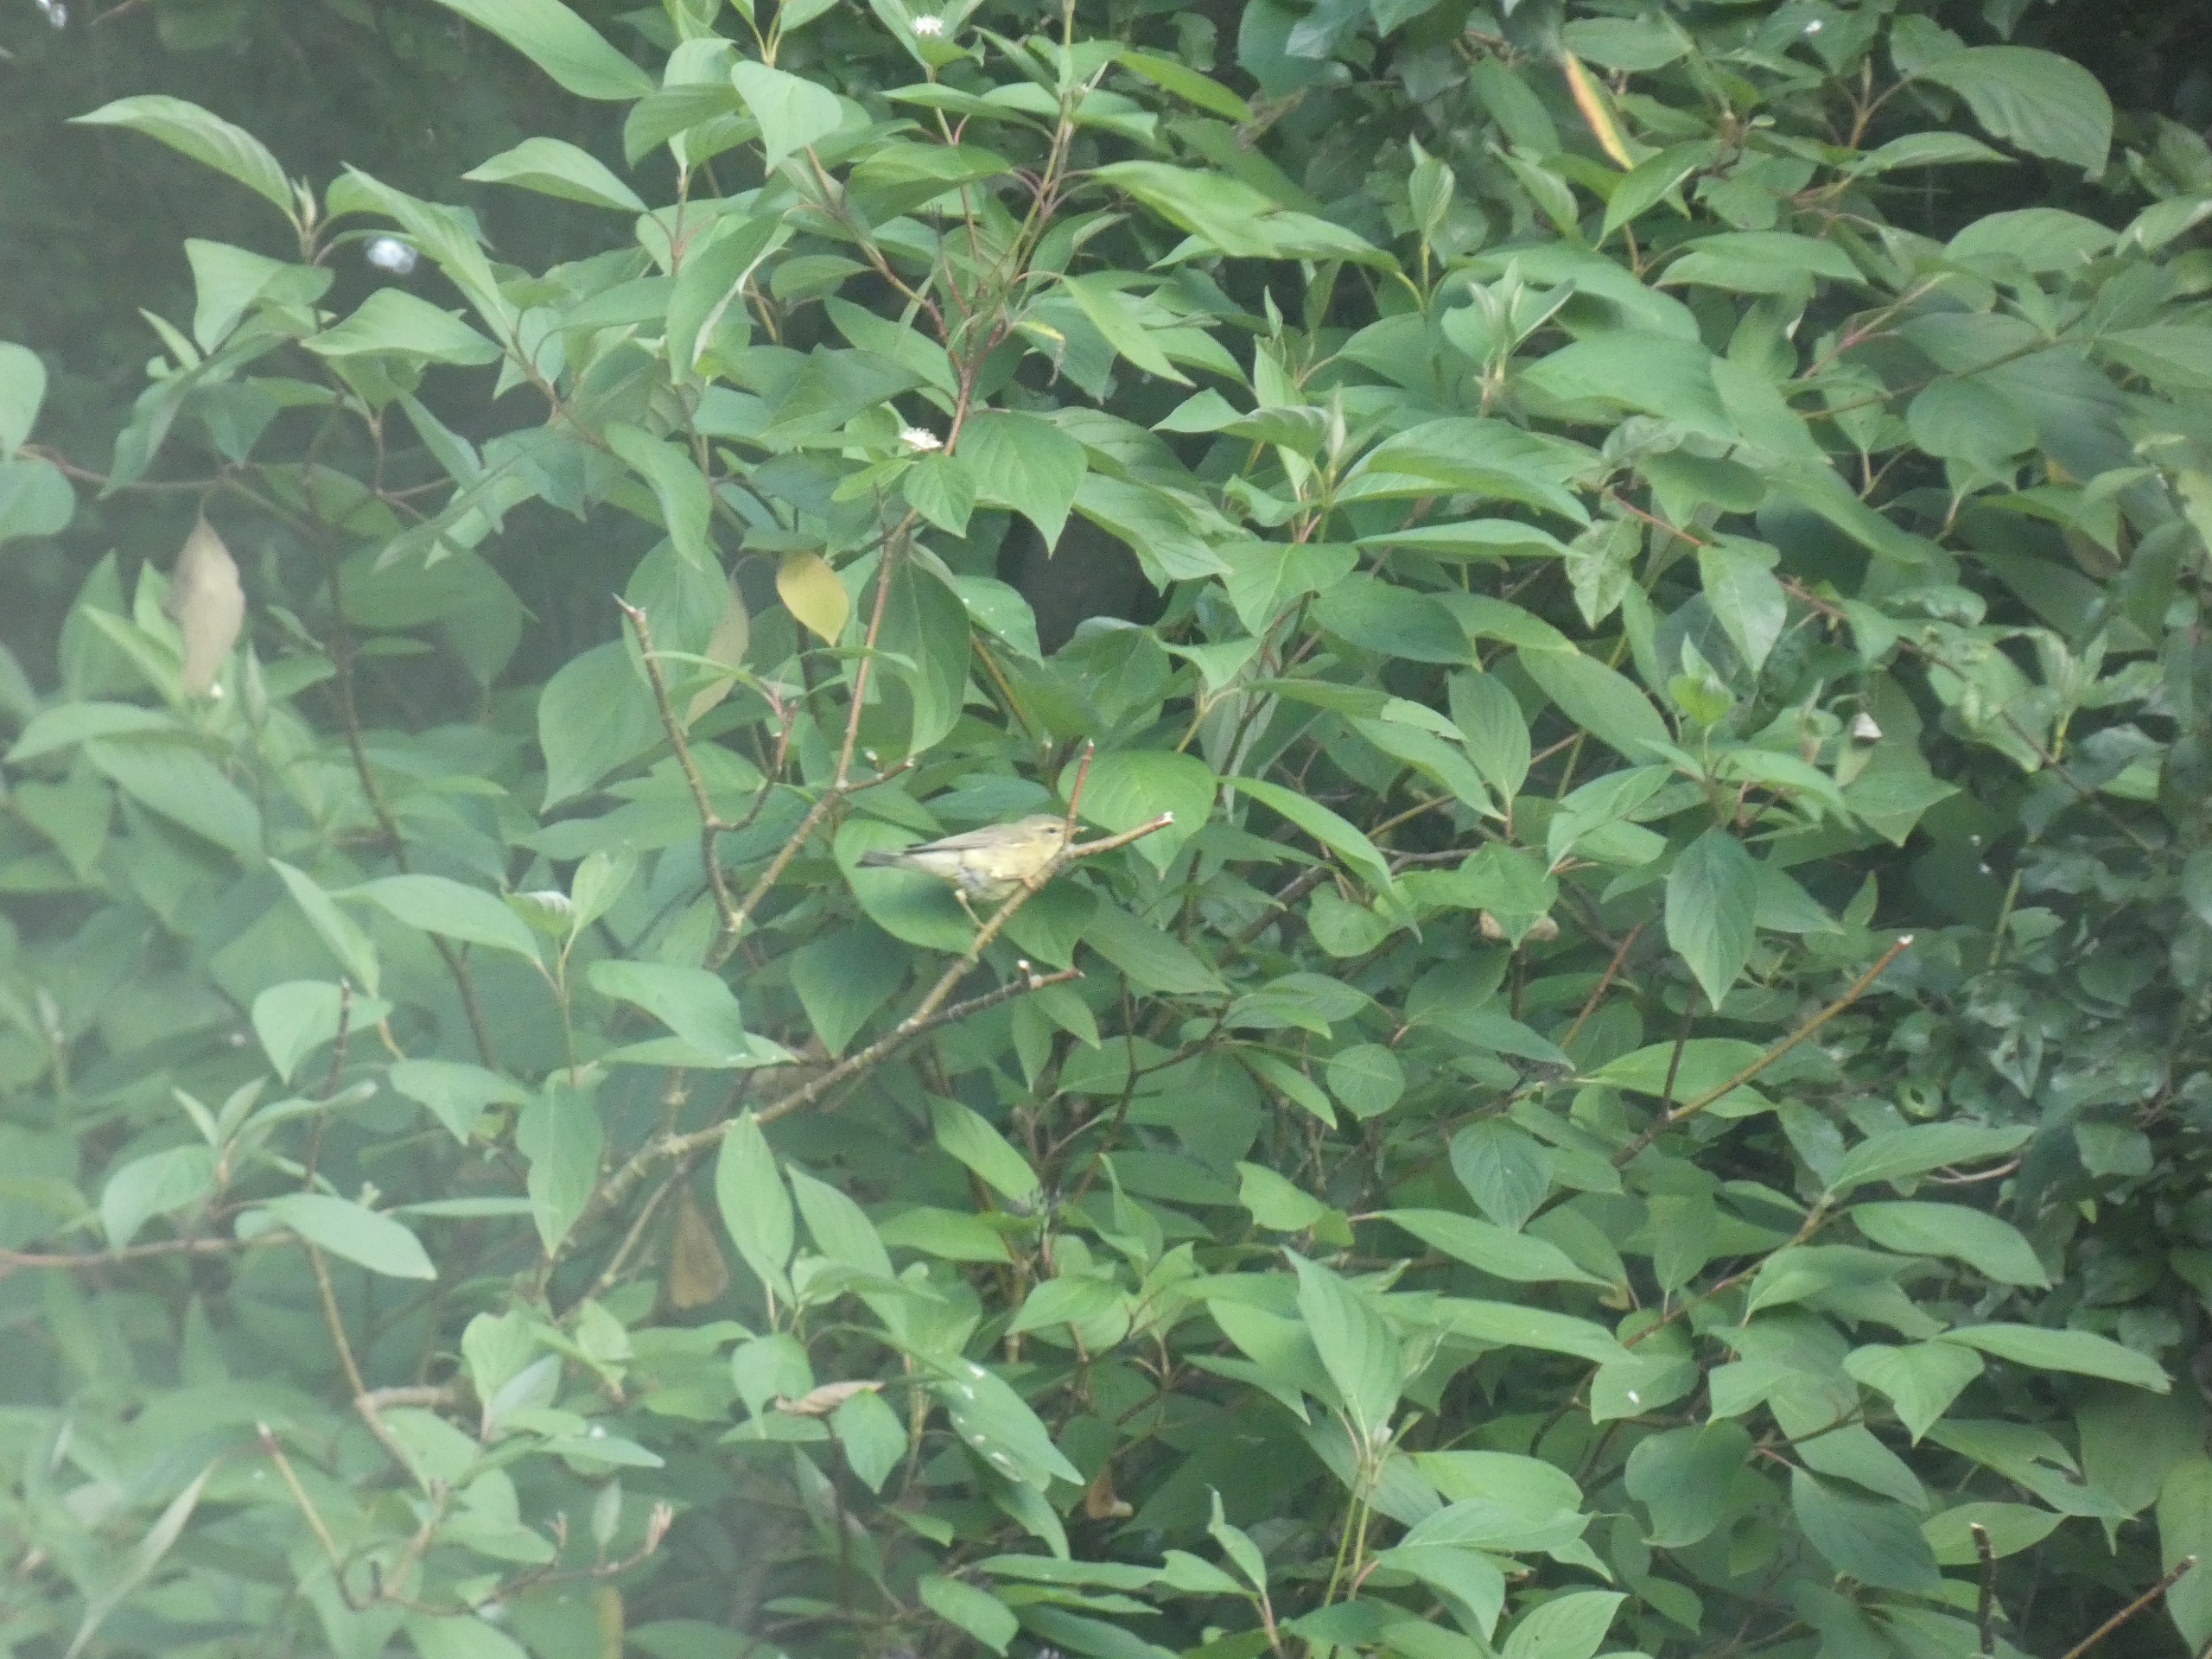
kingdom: Animalia
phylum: Chordata
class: Aves
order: Passeriformes
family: Phylloscopidae
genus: Phylloscopus
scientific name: Phylloscopus trochilus
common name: Løvsanger
